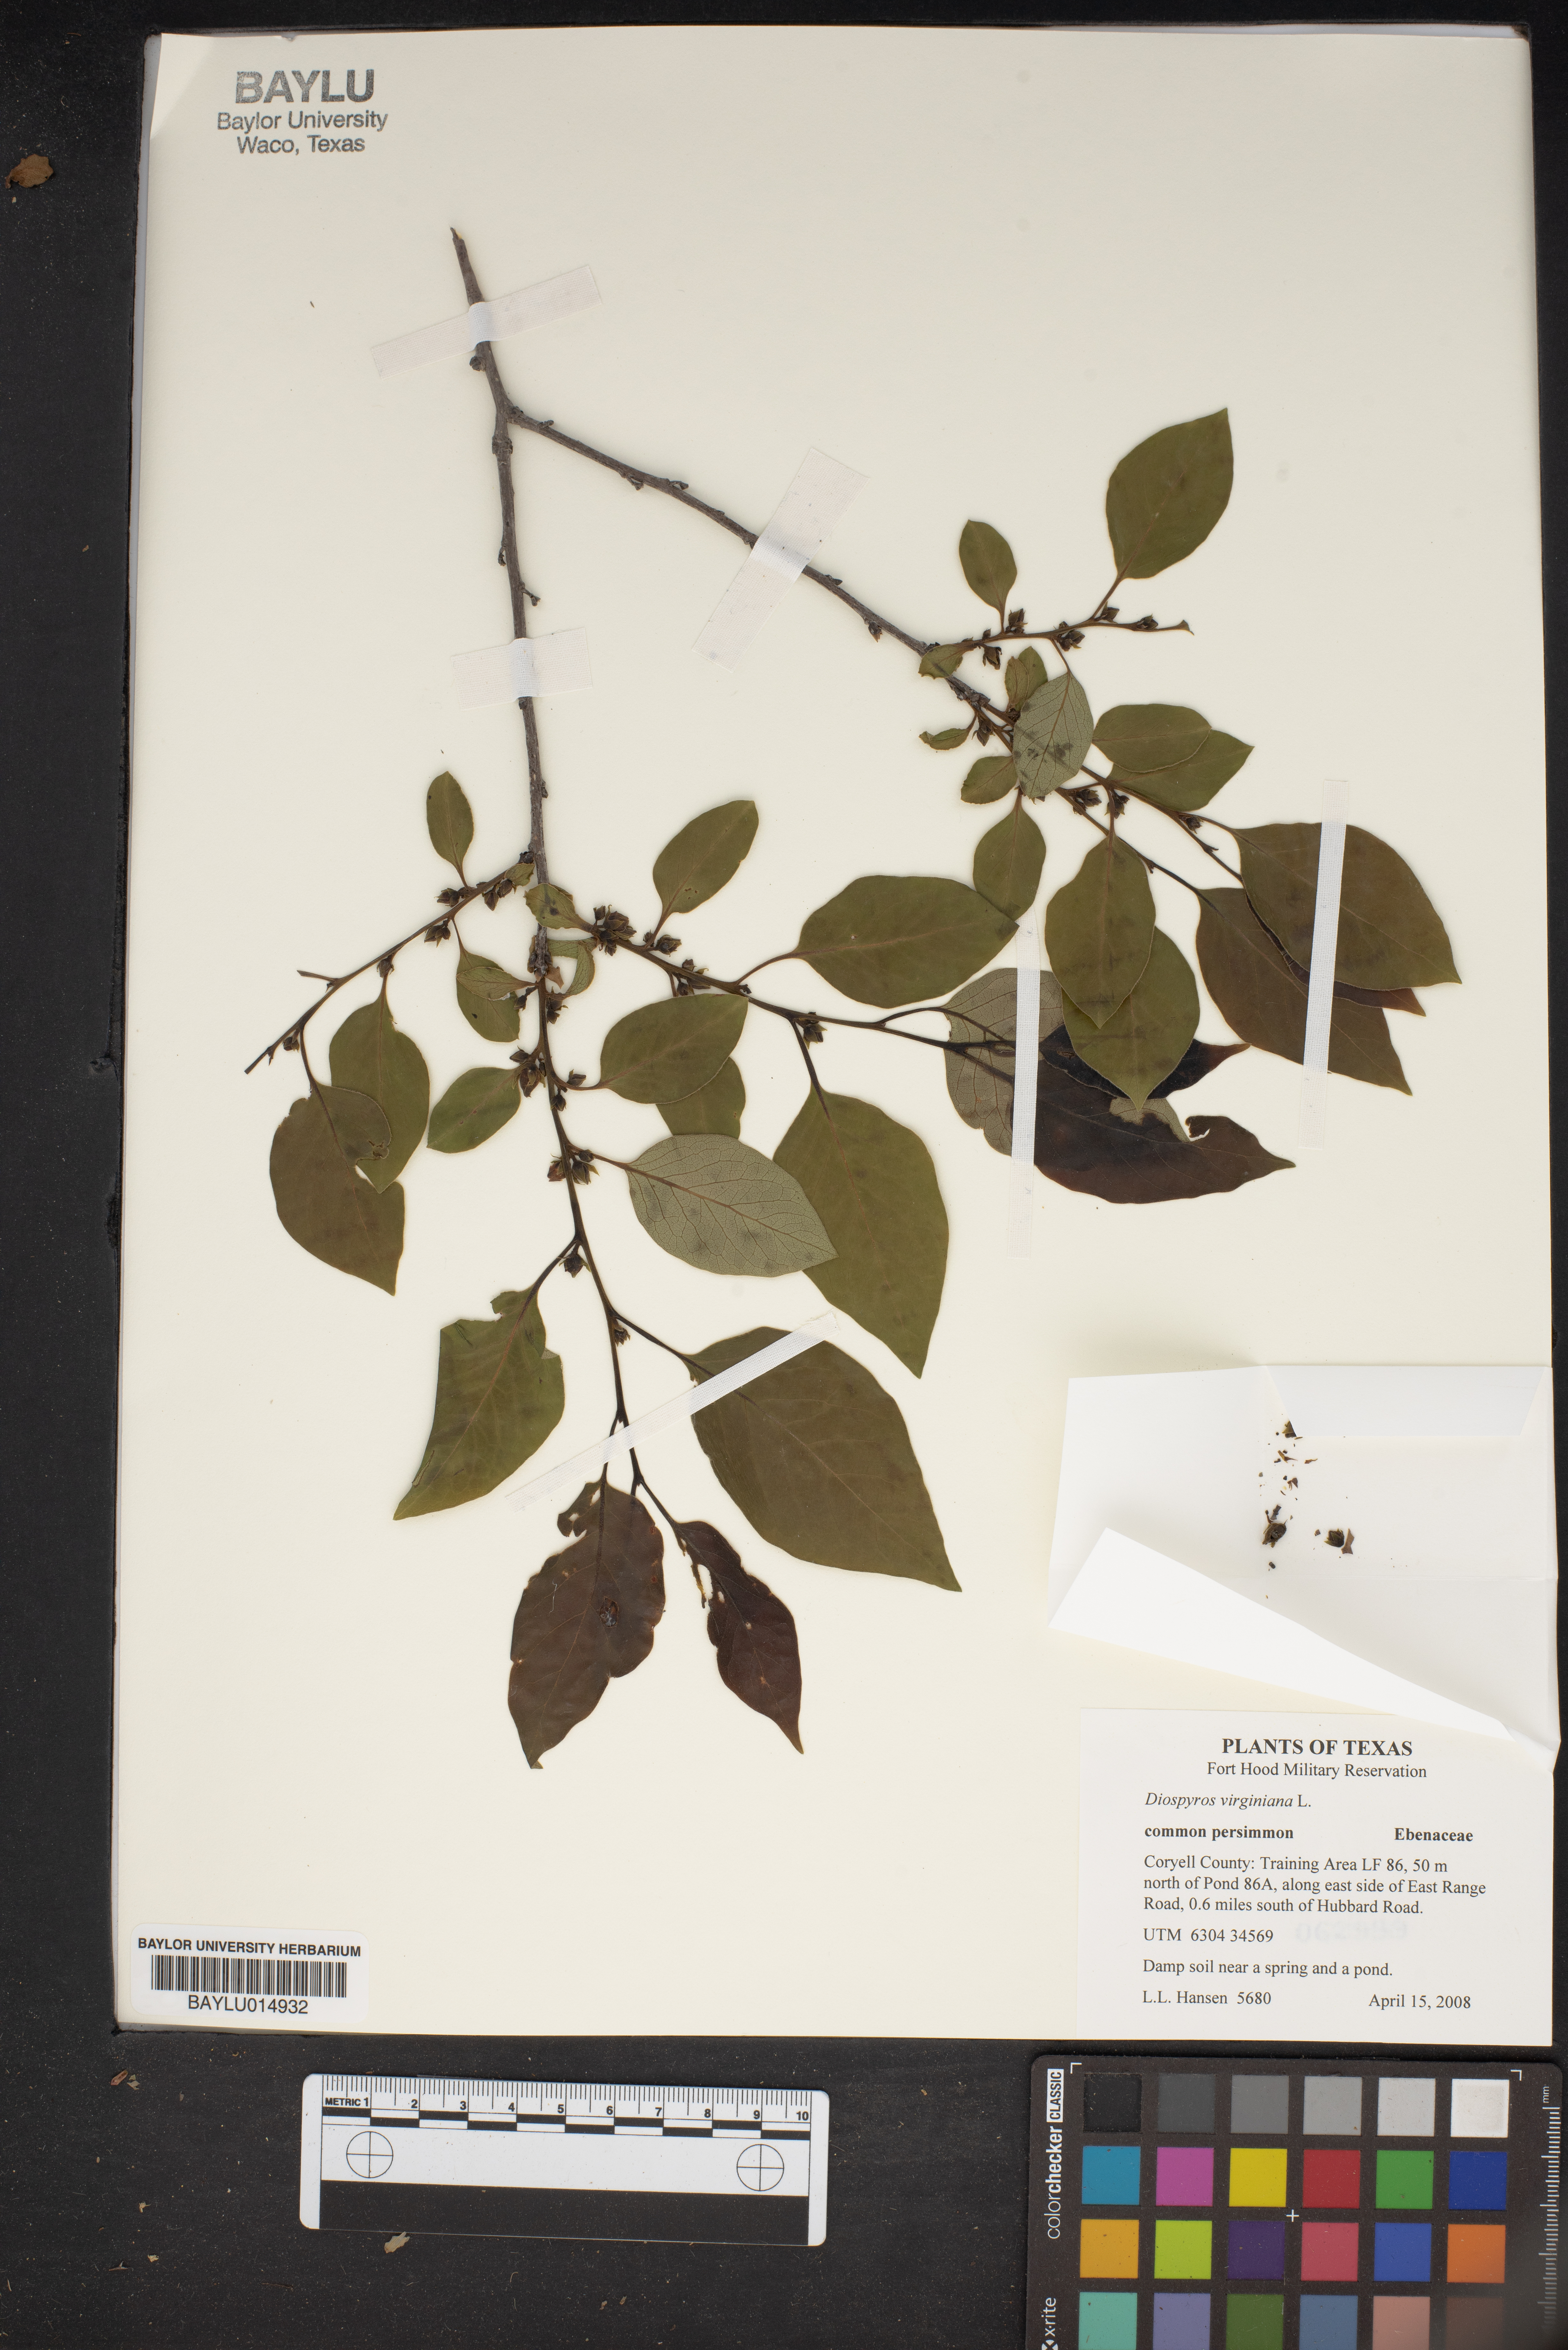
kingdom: Plantae
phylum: Tracheophyta
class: Magnoliopsida
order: Ericales
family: Ebenaceae
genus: Diospyros
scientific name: Diospyros virginiana
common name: Persimmon
